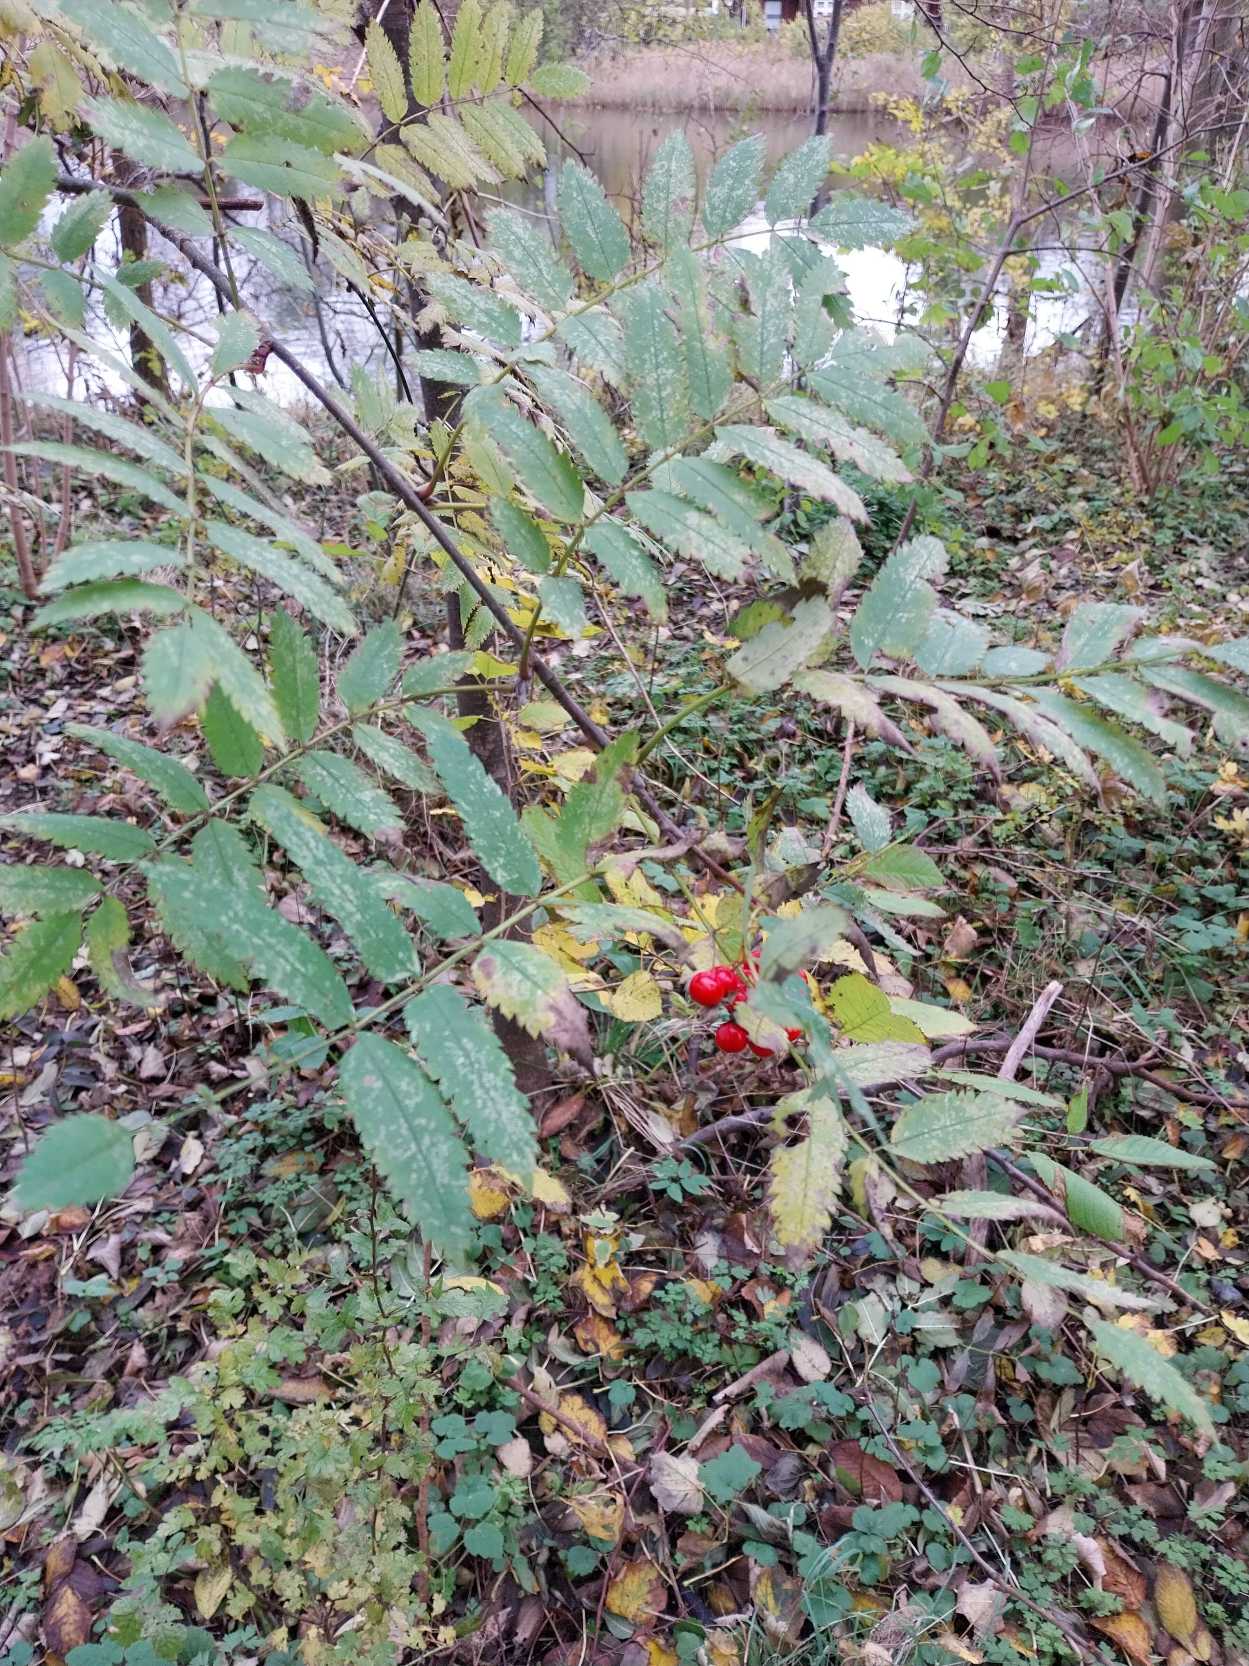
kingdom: Plantae
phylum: Tracheophyta
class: Magnoliopsida
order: Rosales
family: Rosaceae
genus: Sorbus
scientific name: Sorbus aucuparia
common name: Almindelig røn
